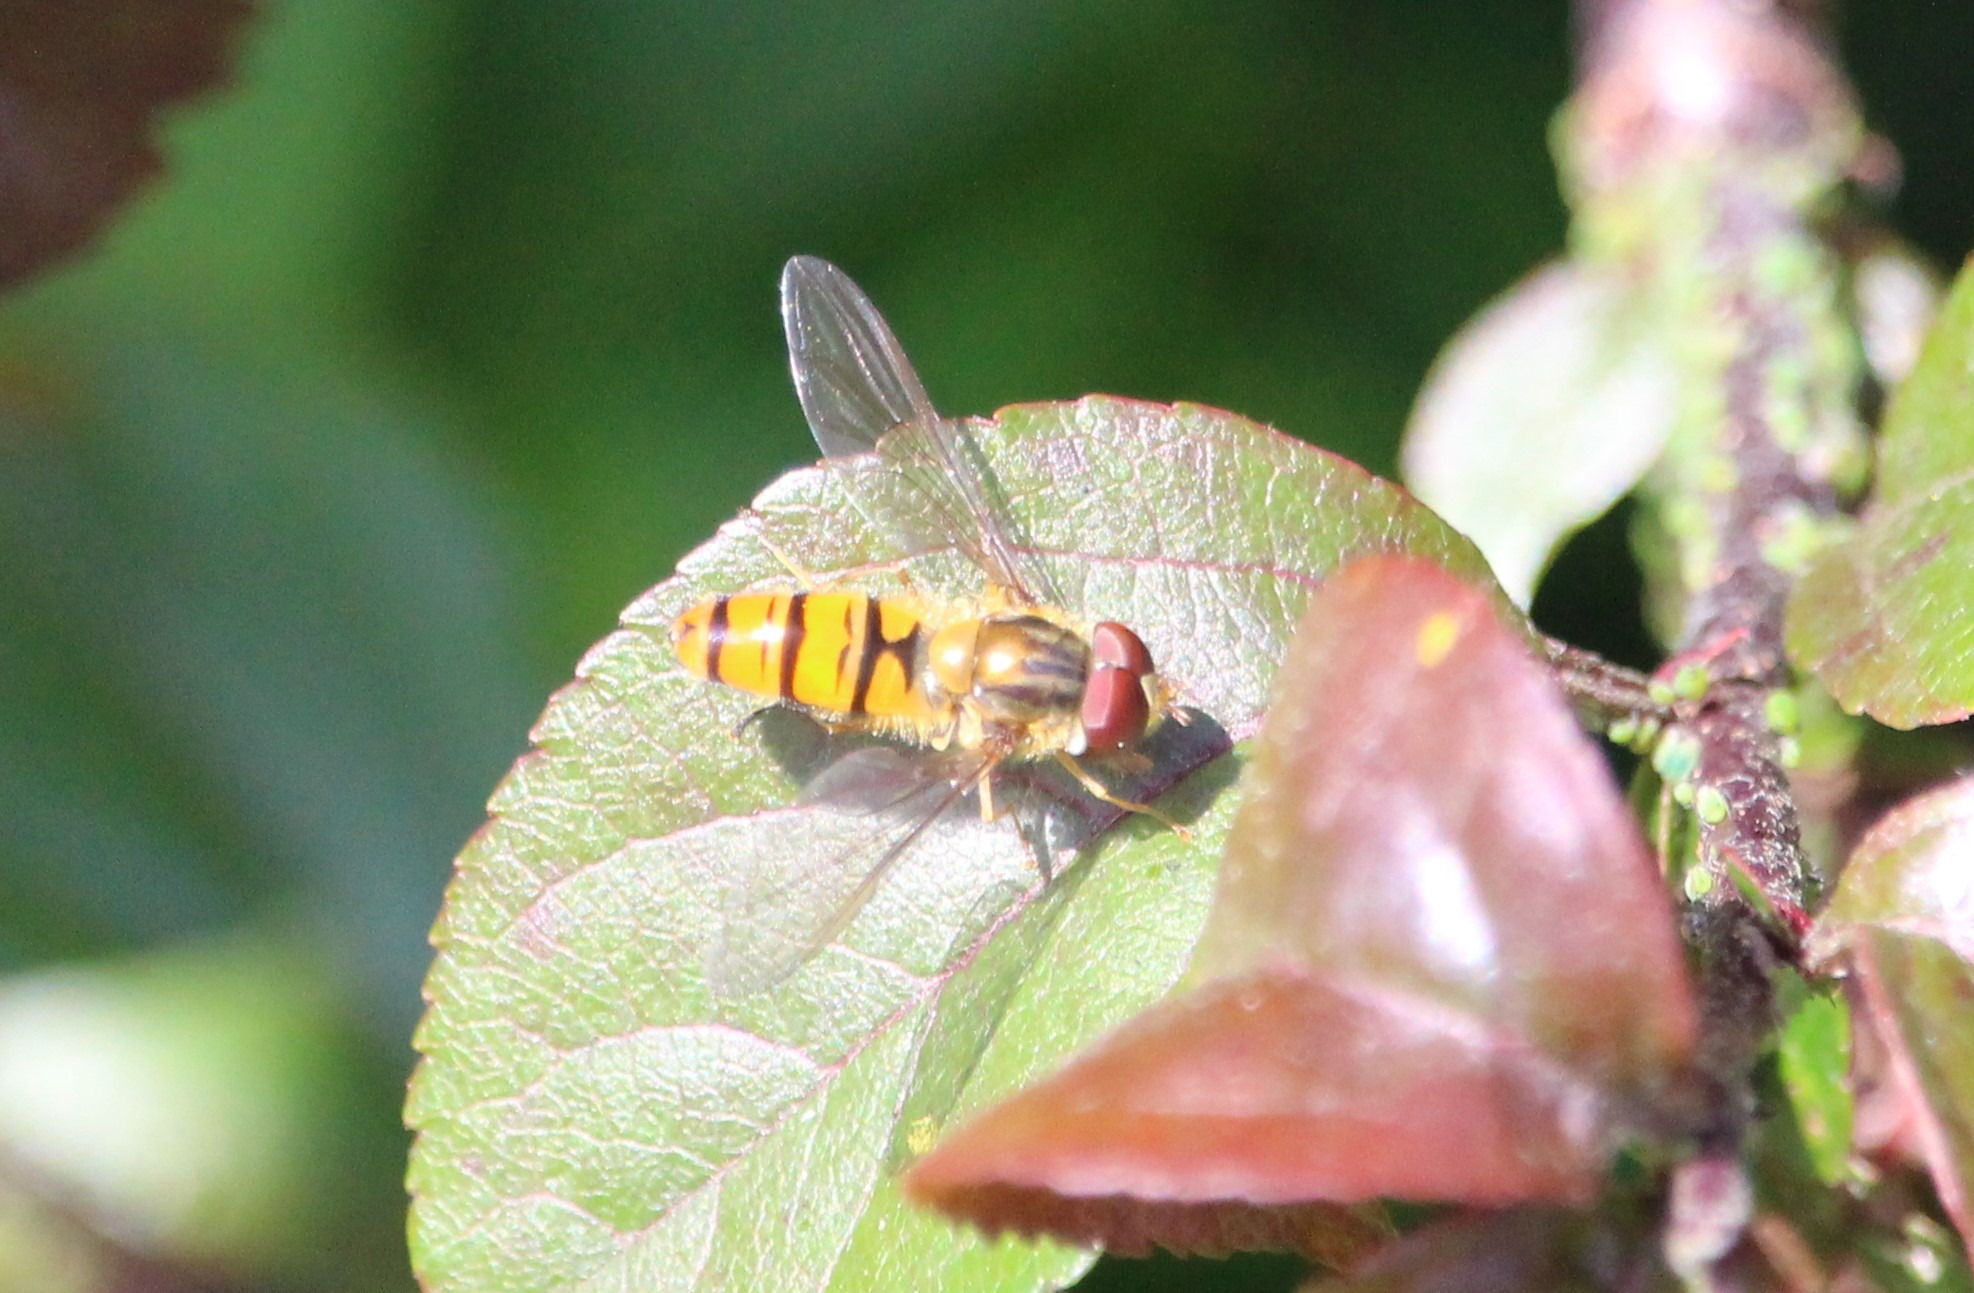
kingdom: Animalia
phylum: Arthropoda
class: Insecta
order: Diptera
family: Syrphidae
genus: Episyrphus
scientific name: Episyrphus balteatus
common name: Dobbeltbåndet svirreflue
